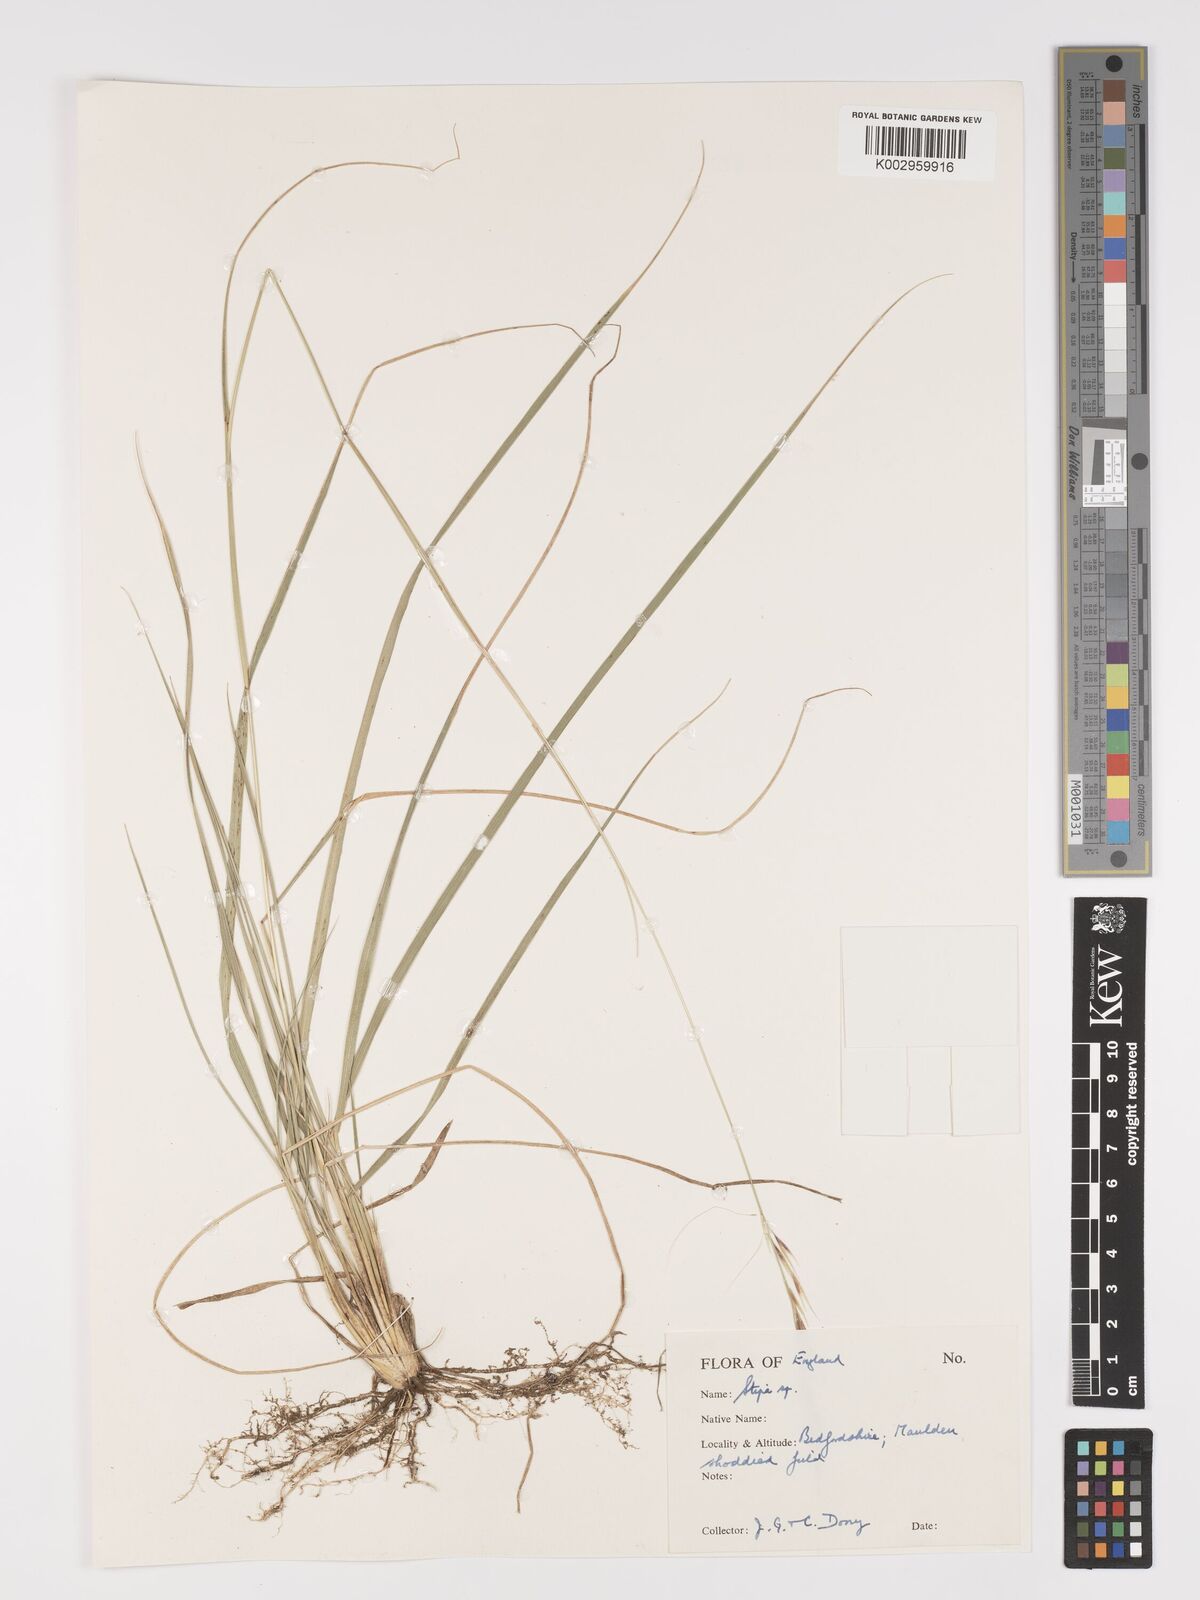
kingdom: Plantae
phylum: Tracheophyta
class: Liliopsida
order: Poales
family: Poaceae
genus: Stipa
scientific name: Stipa
